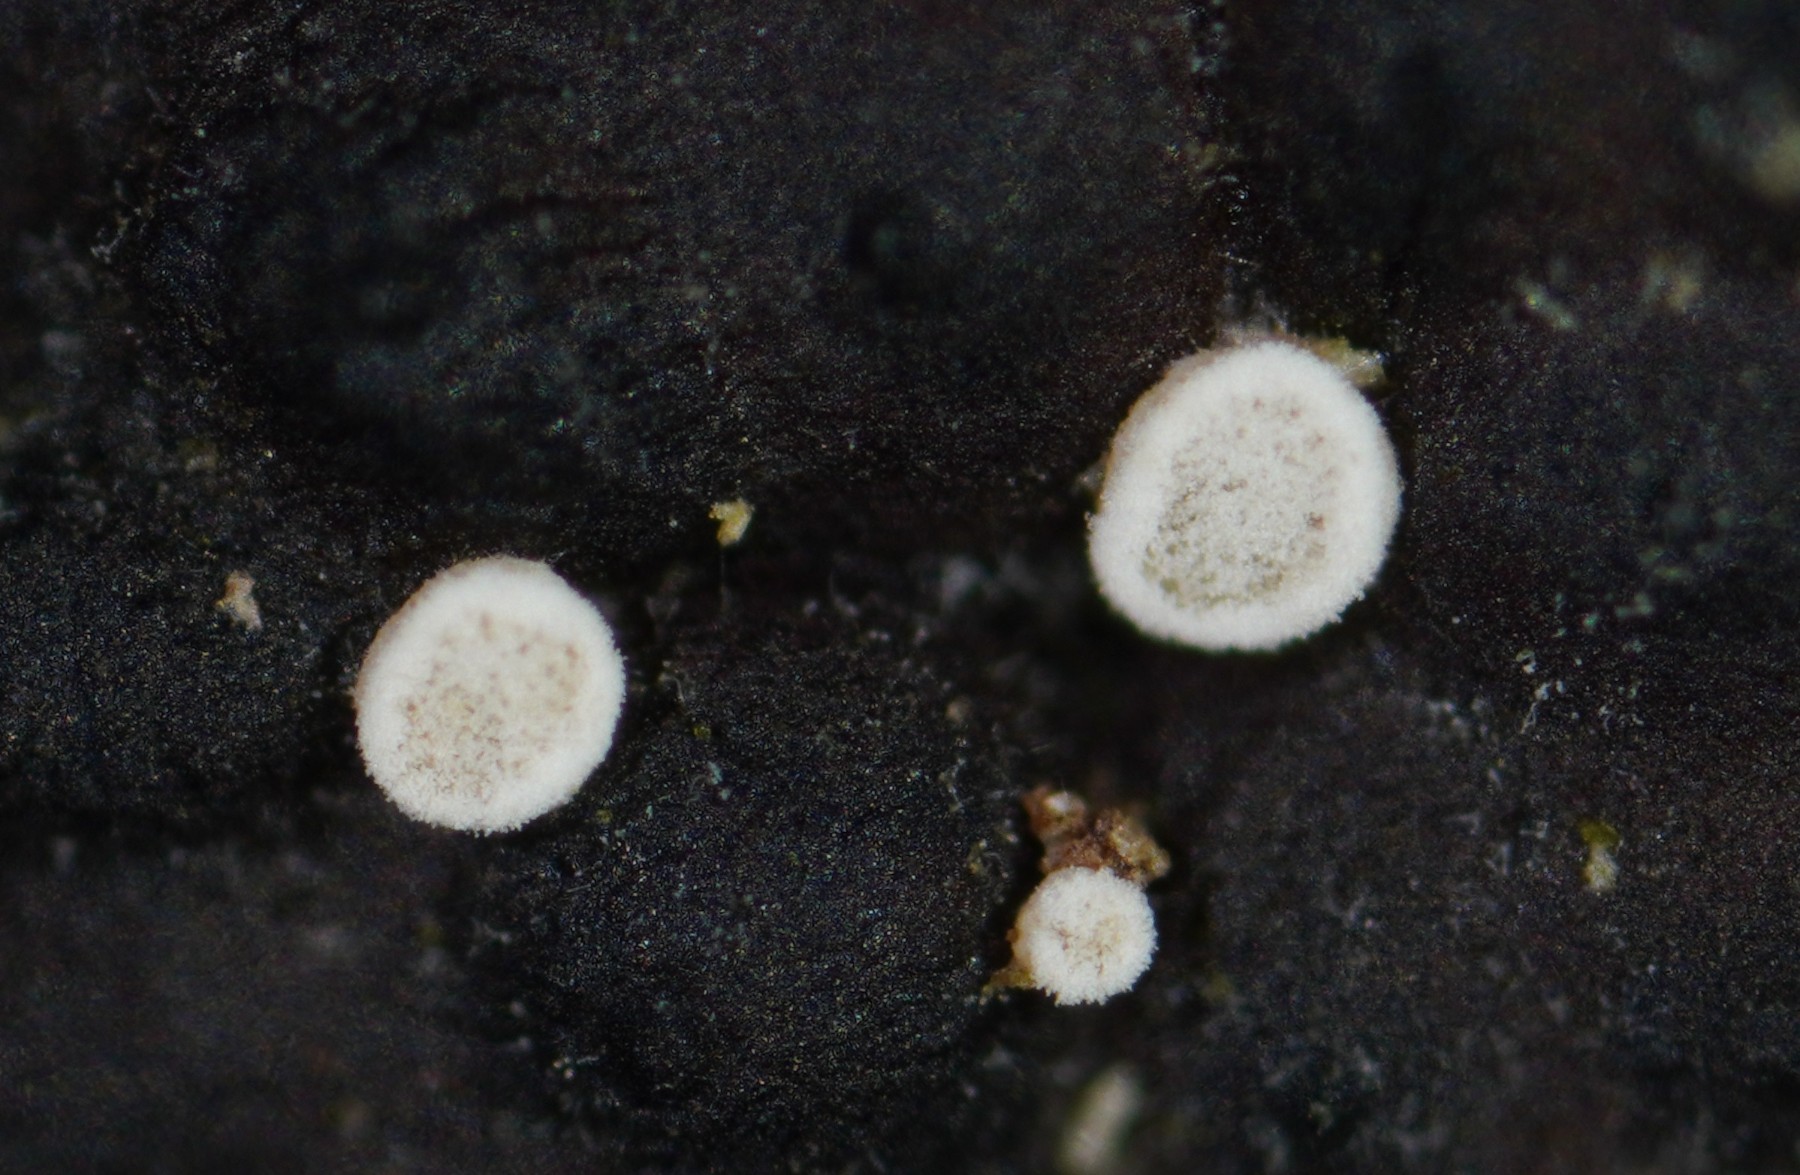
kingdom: Fungi
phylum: Ascomycota
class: Leotiomycetes
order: Helotiales
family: Hyaloscyphaceae
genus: Polydesmia
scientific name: Polydesmia pruinosa
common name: dunskive
